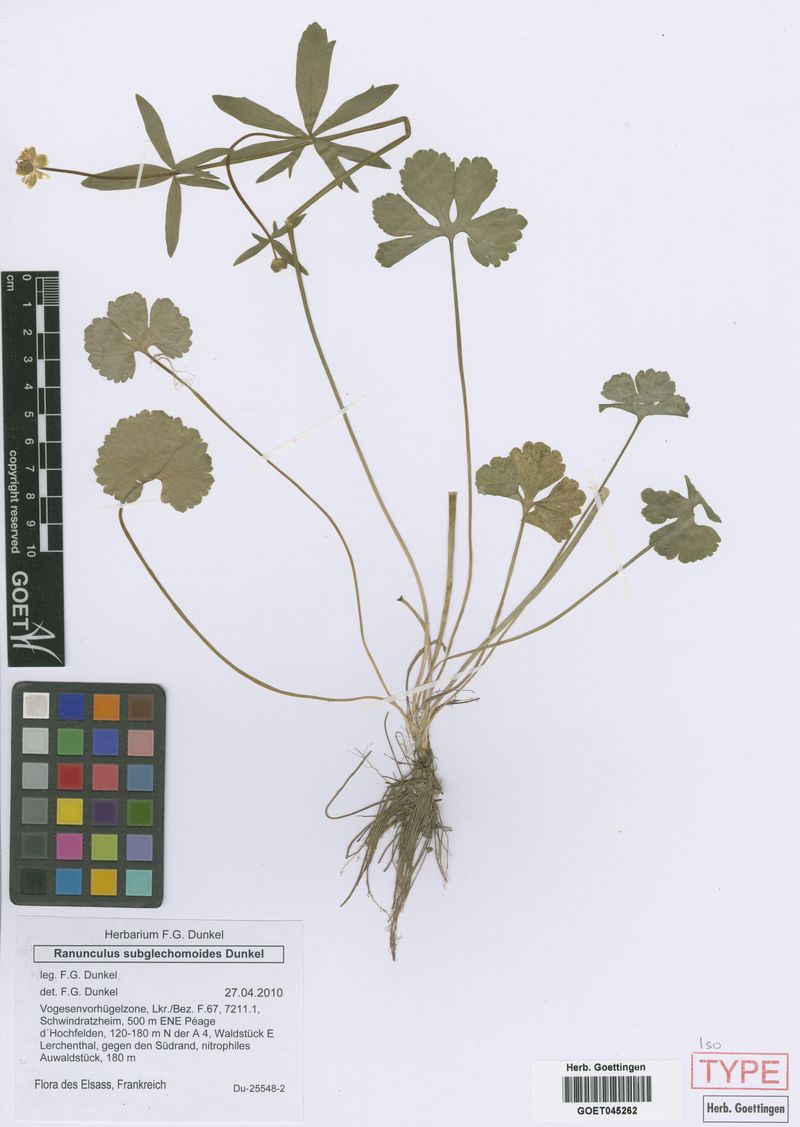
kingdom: Plantae
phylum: Tracheophyta
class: Magnoliopsida
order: Ranunculales
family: Ranunculaceae
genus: Ranunculus
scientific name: Ranunculus subglechomoides
